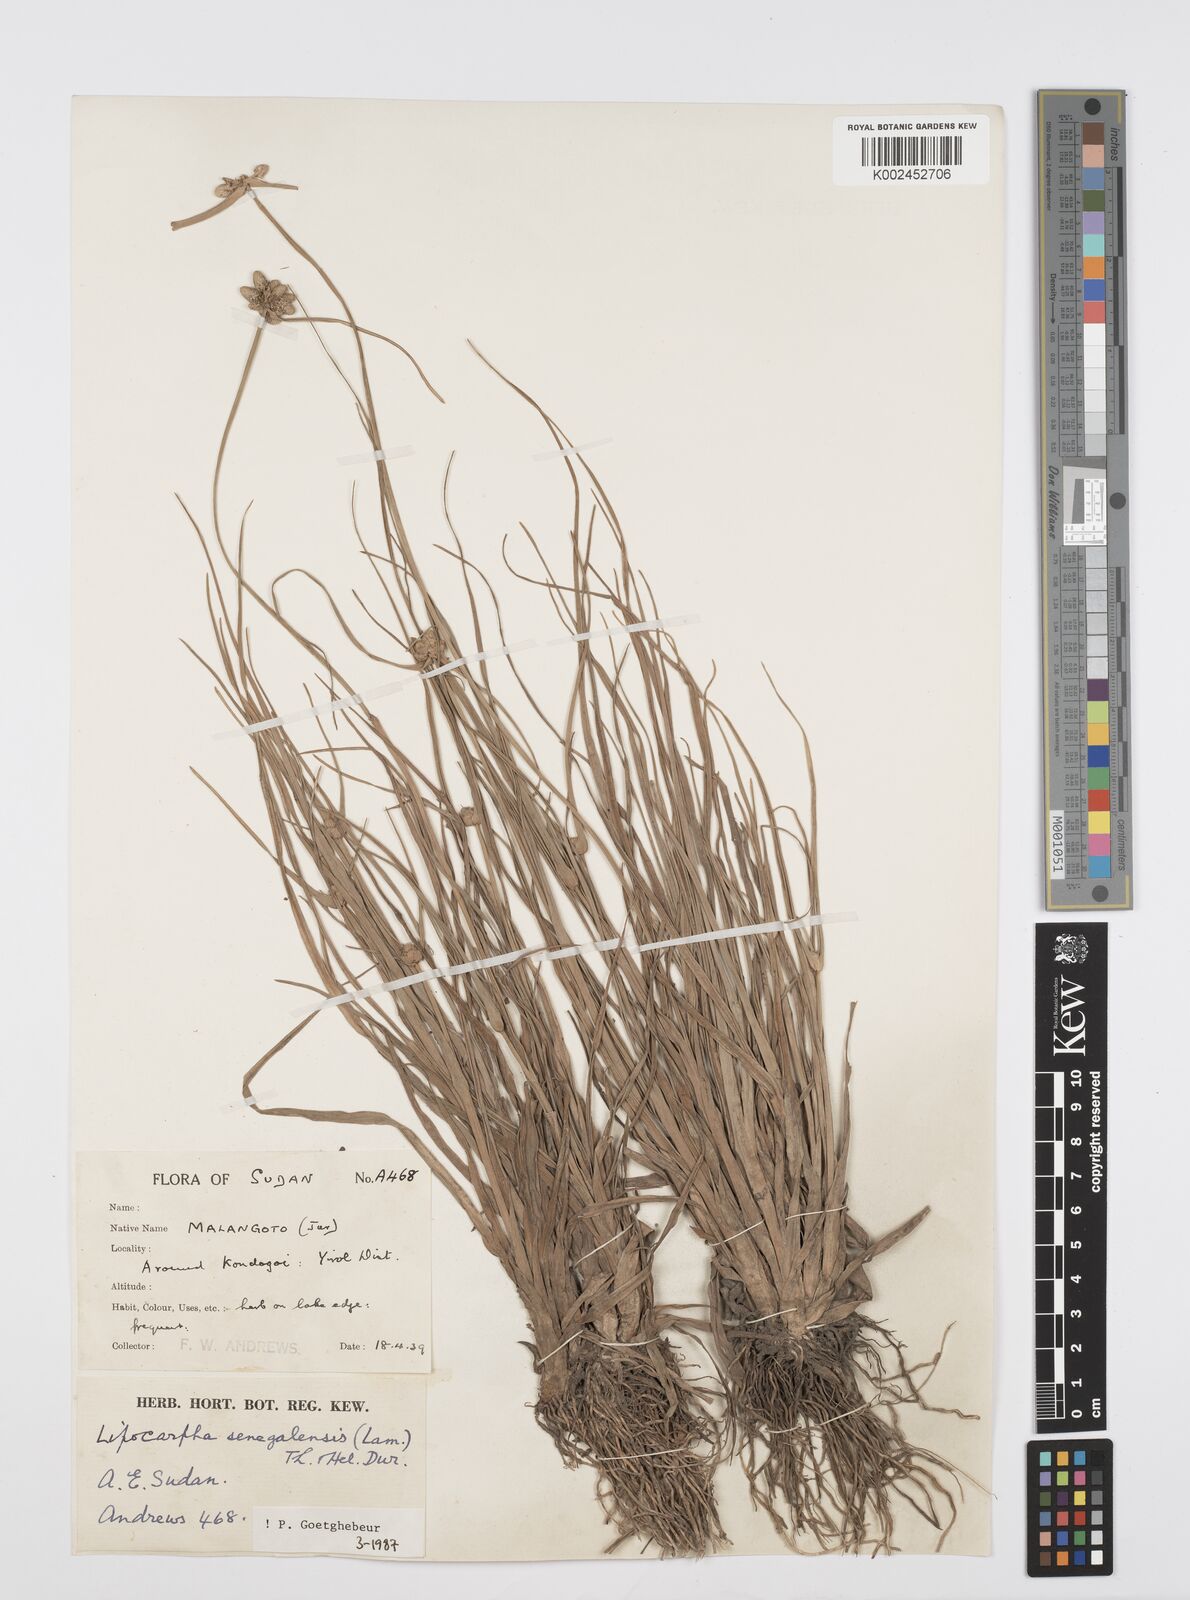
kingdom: Plantae
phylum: Tracheophyta
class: Liliopsida
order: Poales
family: Cyperaceae
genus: Cyperus
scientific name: Cyperus albescens
